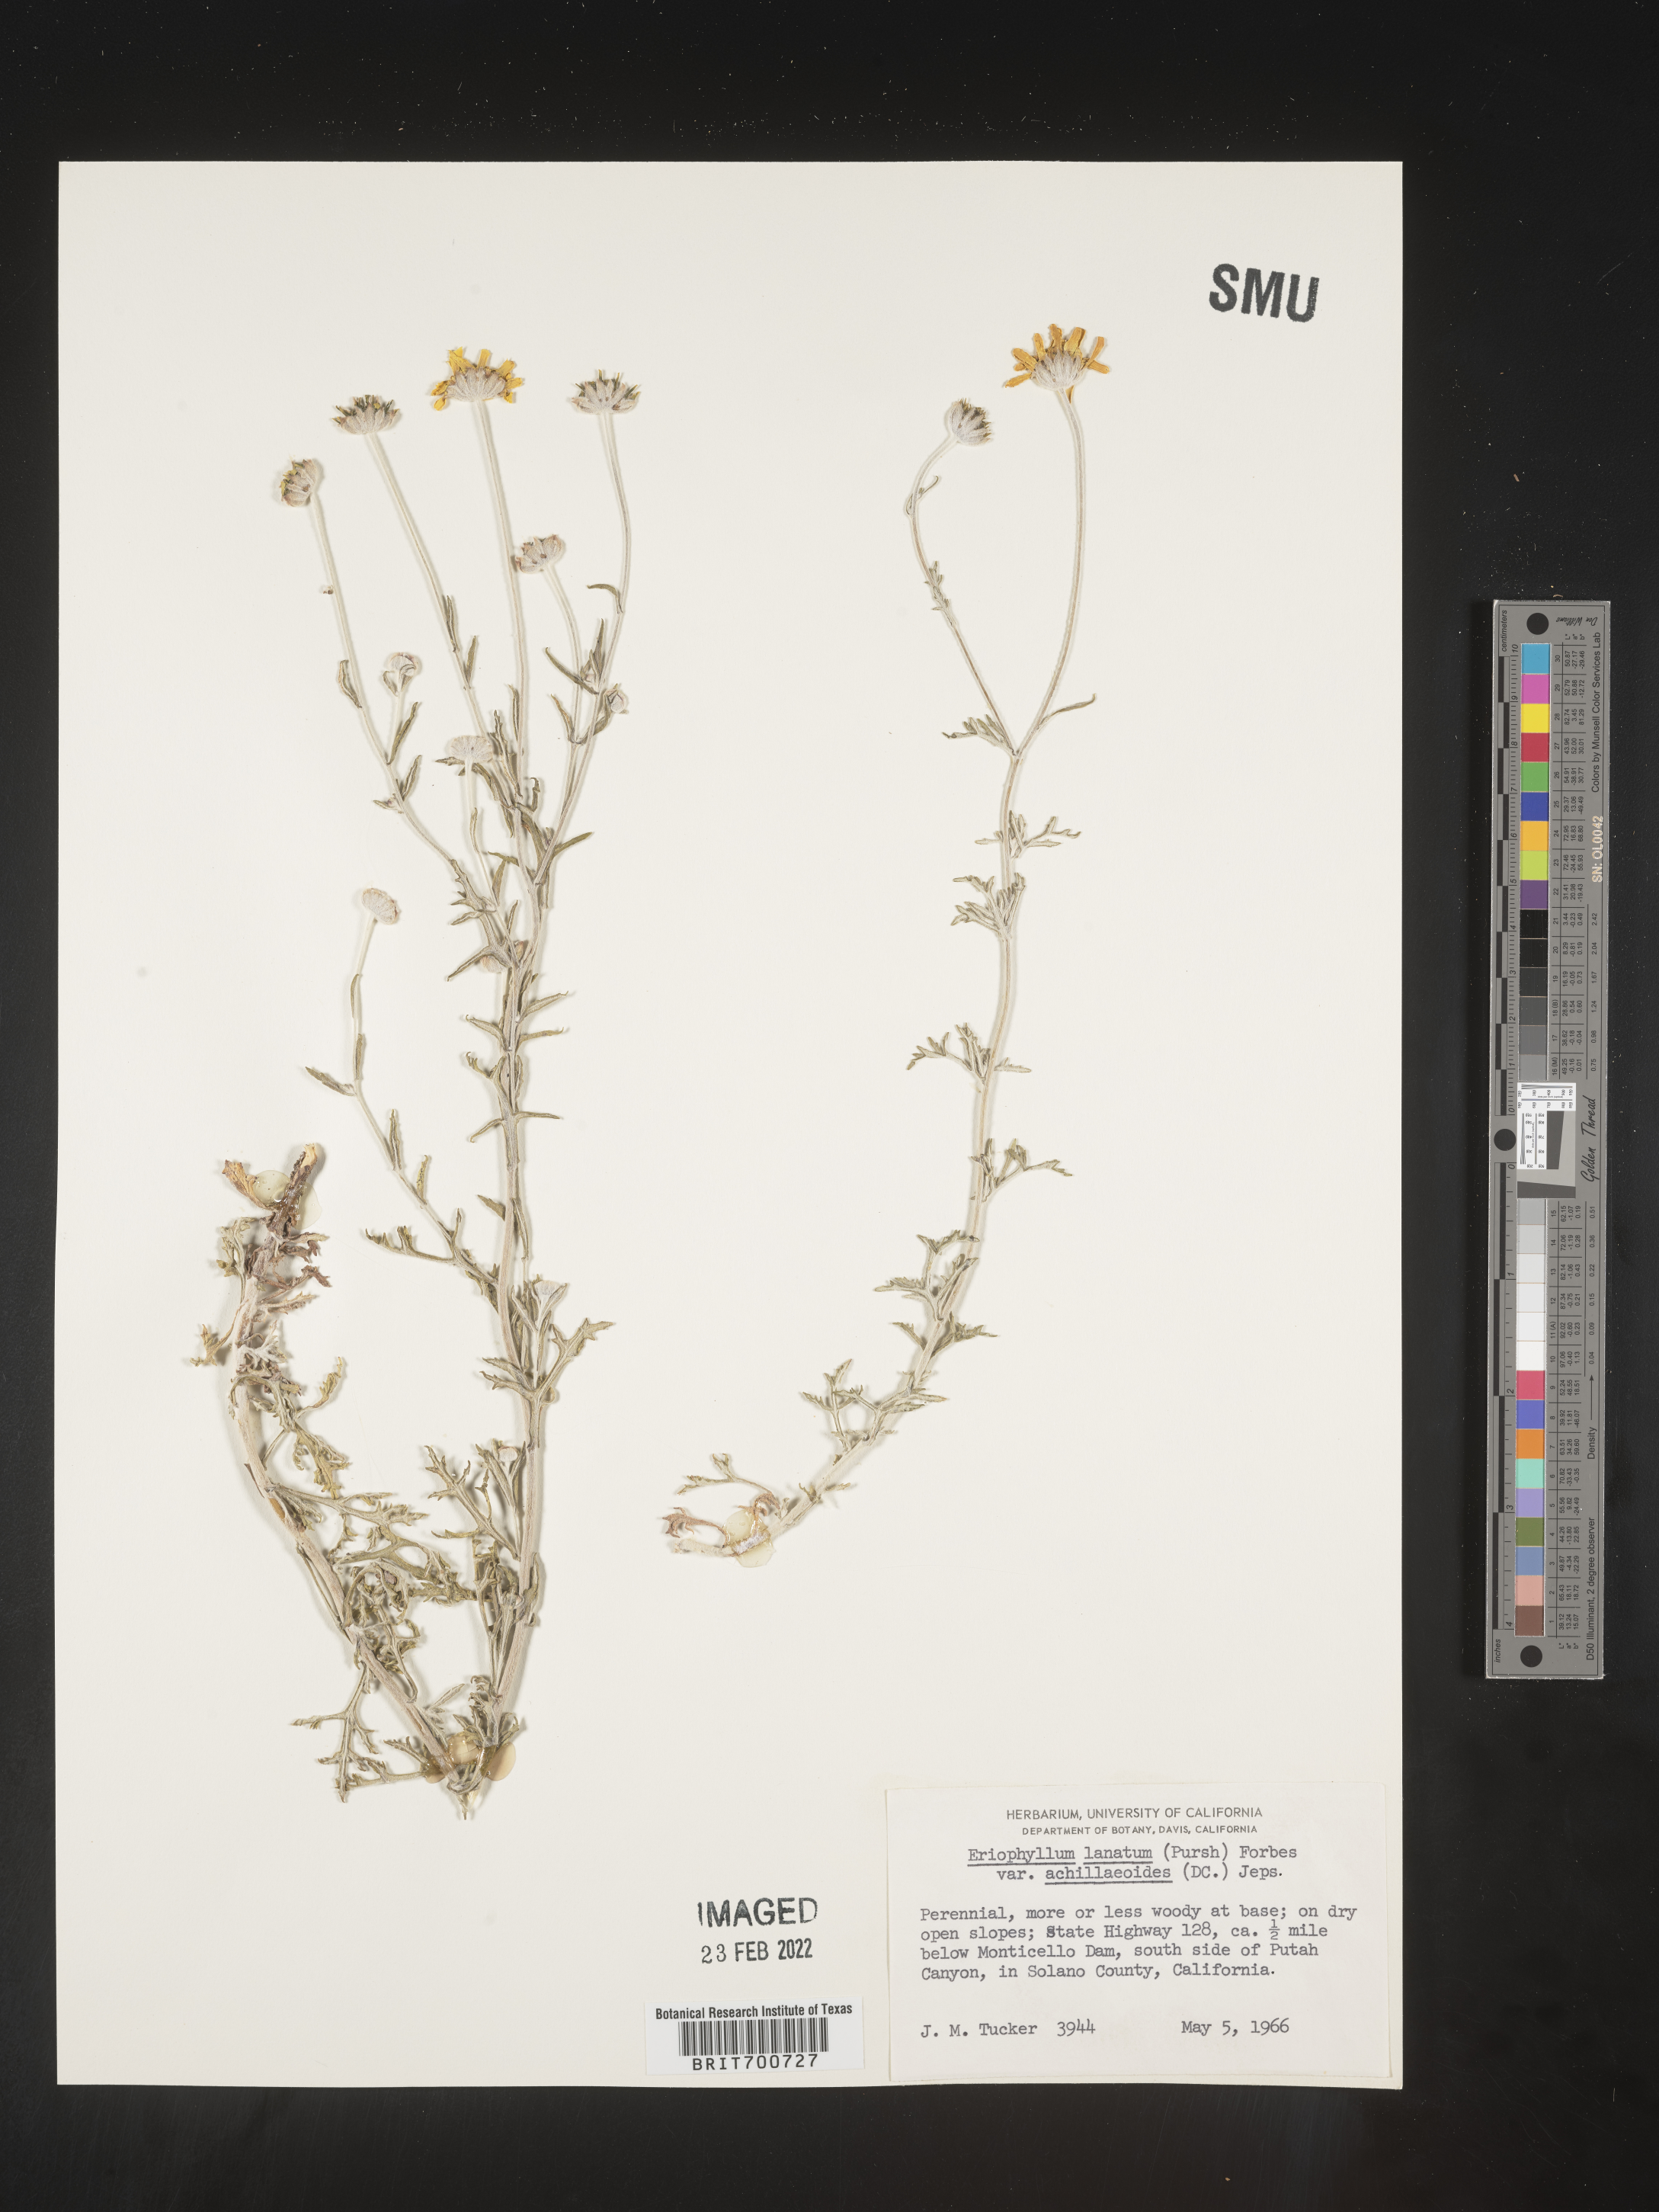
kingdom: Plantae
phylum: Tracheophyta
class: Magnoliopsida
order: Asterales
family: Asteraceae
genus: Eriophyllum
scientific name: Eriophyllum lanatum
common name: Common woolly-sunflower
